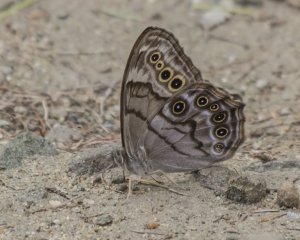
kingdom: Animalia
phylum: Arthropoda
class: Insecta
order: Lepidoptera
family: Nymphalidae
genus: Lethe
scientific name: Lethe anthedon
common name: Northern Pearly-Eye
